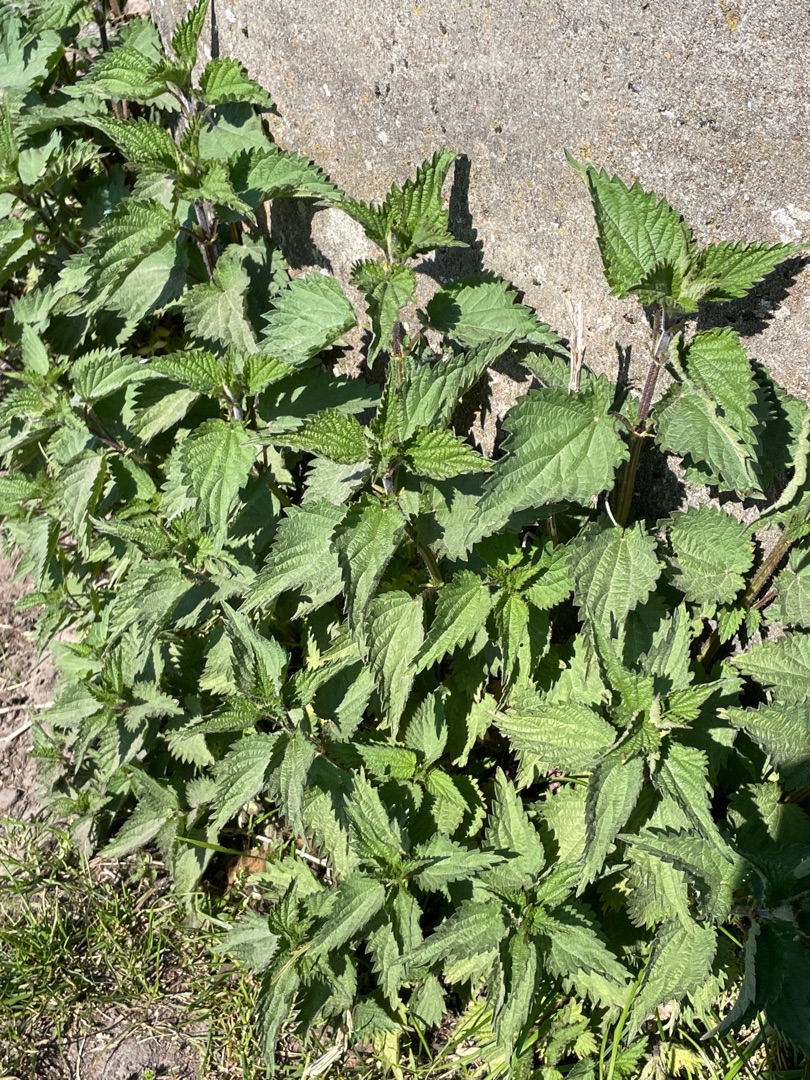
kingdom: Plantae
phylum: Tracheophyta
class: Magnoliopsida
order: Rosales
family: Urticaceae
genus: Urtica
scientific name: Urtica dioica
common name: Stor nælde
